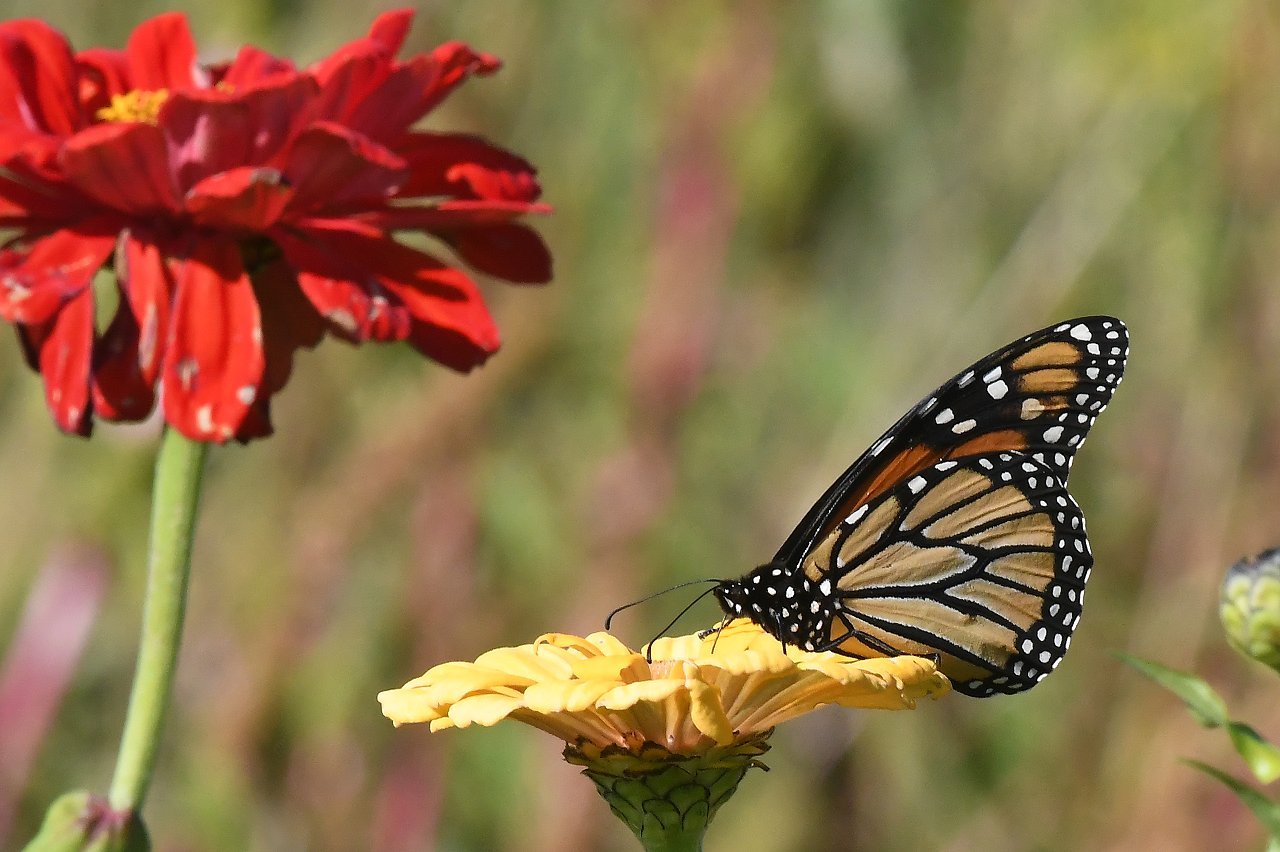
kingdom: Animalia
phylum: Arthropoda
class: Insecta
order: Lepidoptera
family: Nymphalidae
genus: Danaus
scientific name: Danaus plexippus
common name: Monarch
